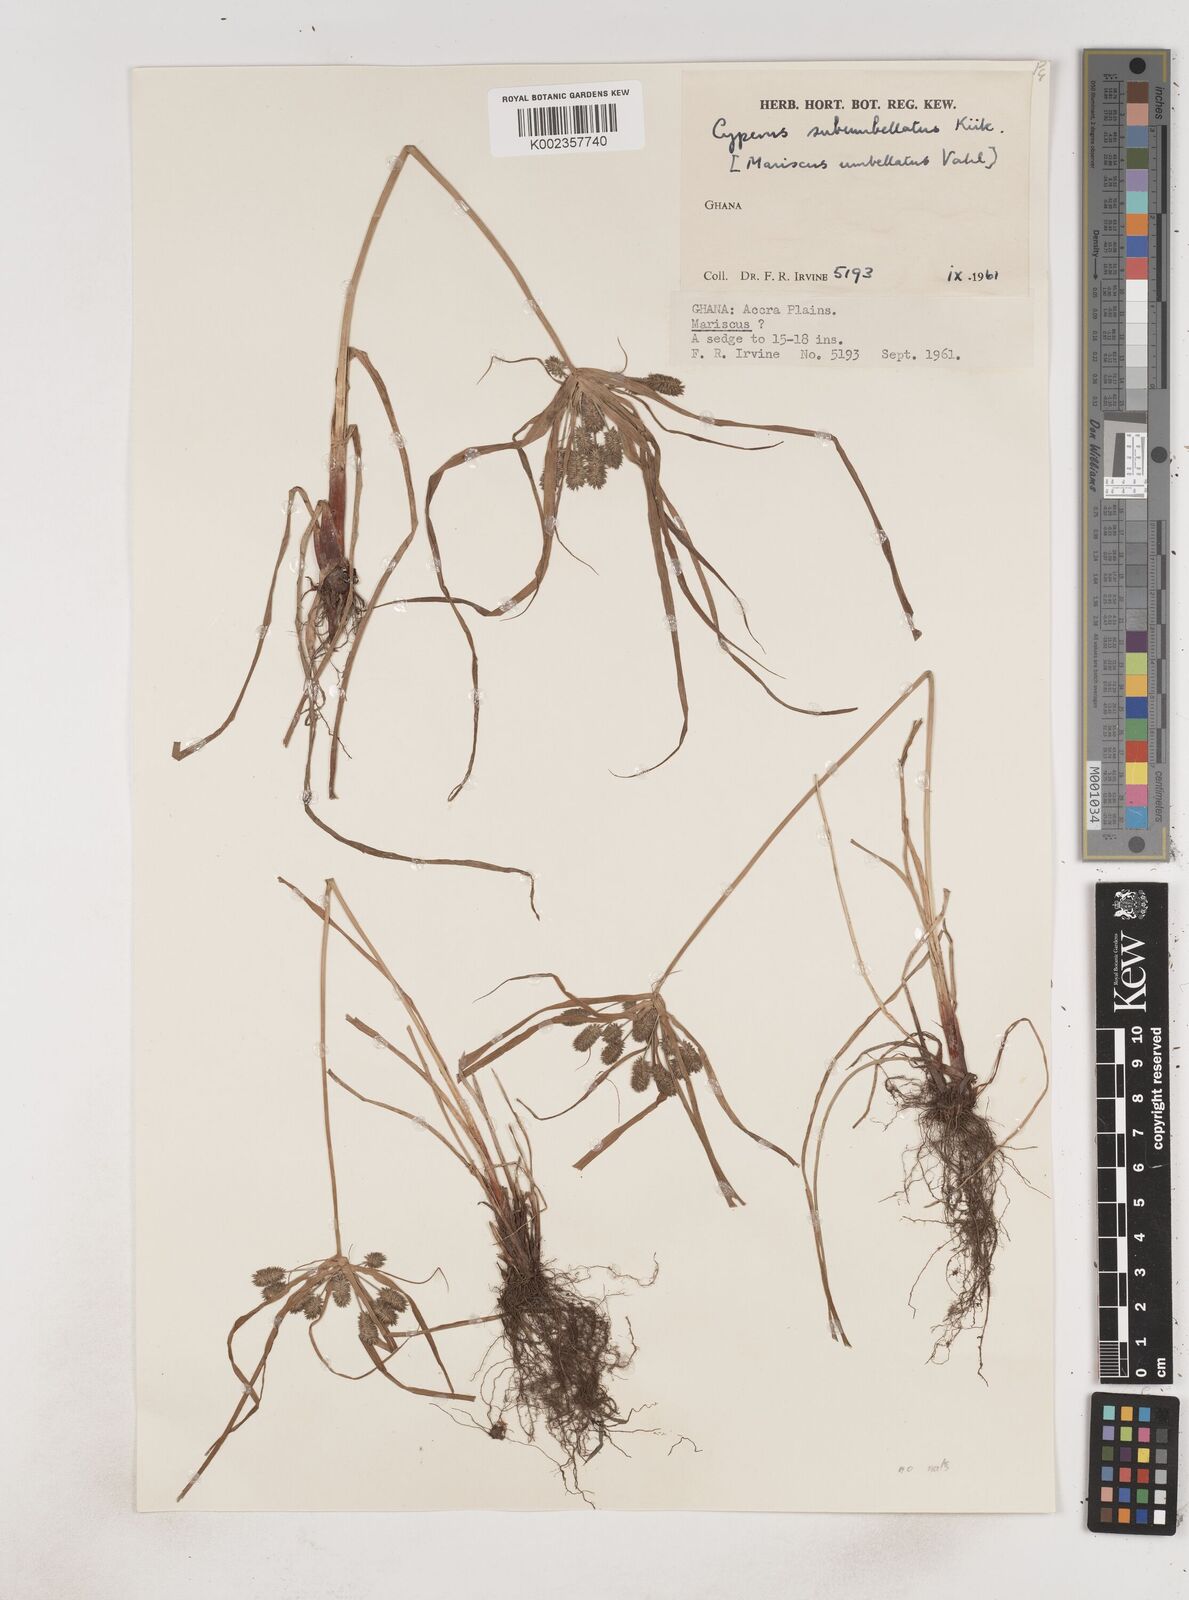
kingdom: Plantae
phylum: Tracheophyta
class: Liliopsida
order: Poales
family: Cyperaceae
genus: Cyperus
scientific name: Cyperus sublimis
